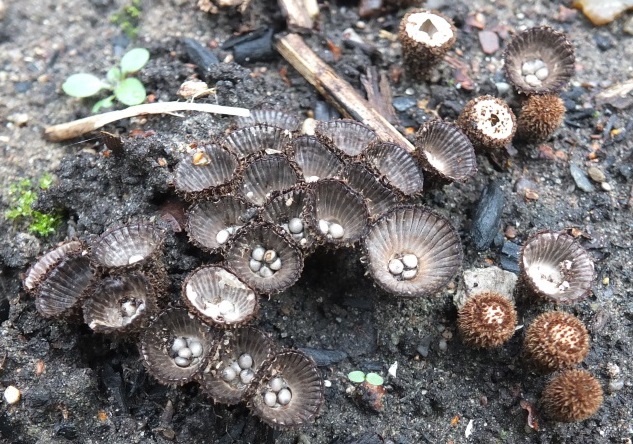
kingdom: Fungi
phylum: Basidiomycota
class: Agaricomycetes
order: Agaricales
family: Agaricaceae
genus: Cyathus
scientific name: Cyathus striatus
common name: stribet redesvamp
